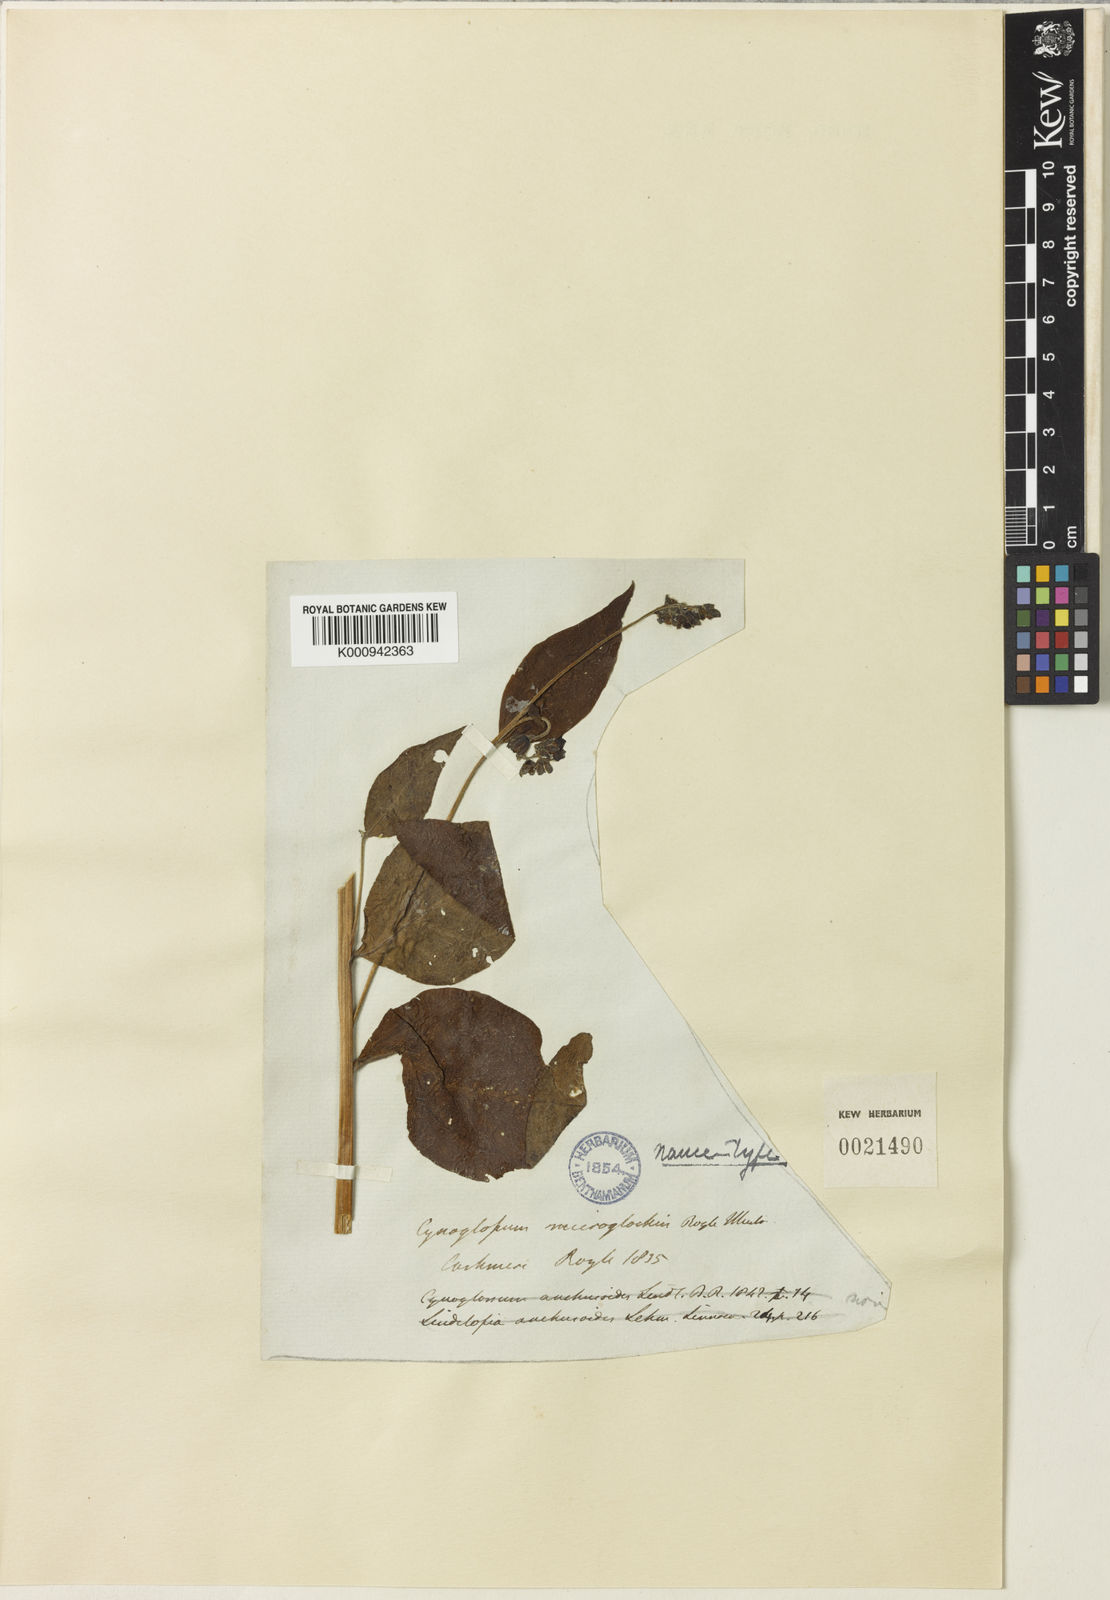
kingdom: Plantae
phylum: Tracheophyta
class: Magnoliopsida
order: Boraginales
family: Boraginaceae
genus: Cynoglossum
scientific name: Cynoglossum microglochin
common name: Smallbristle hound's tongue
